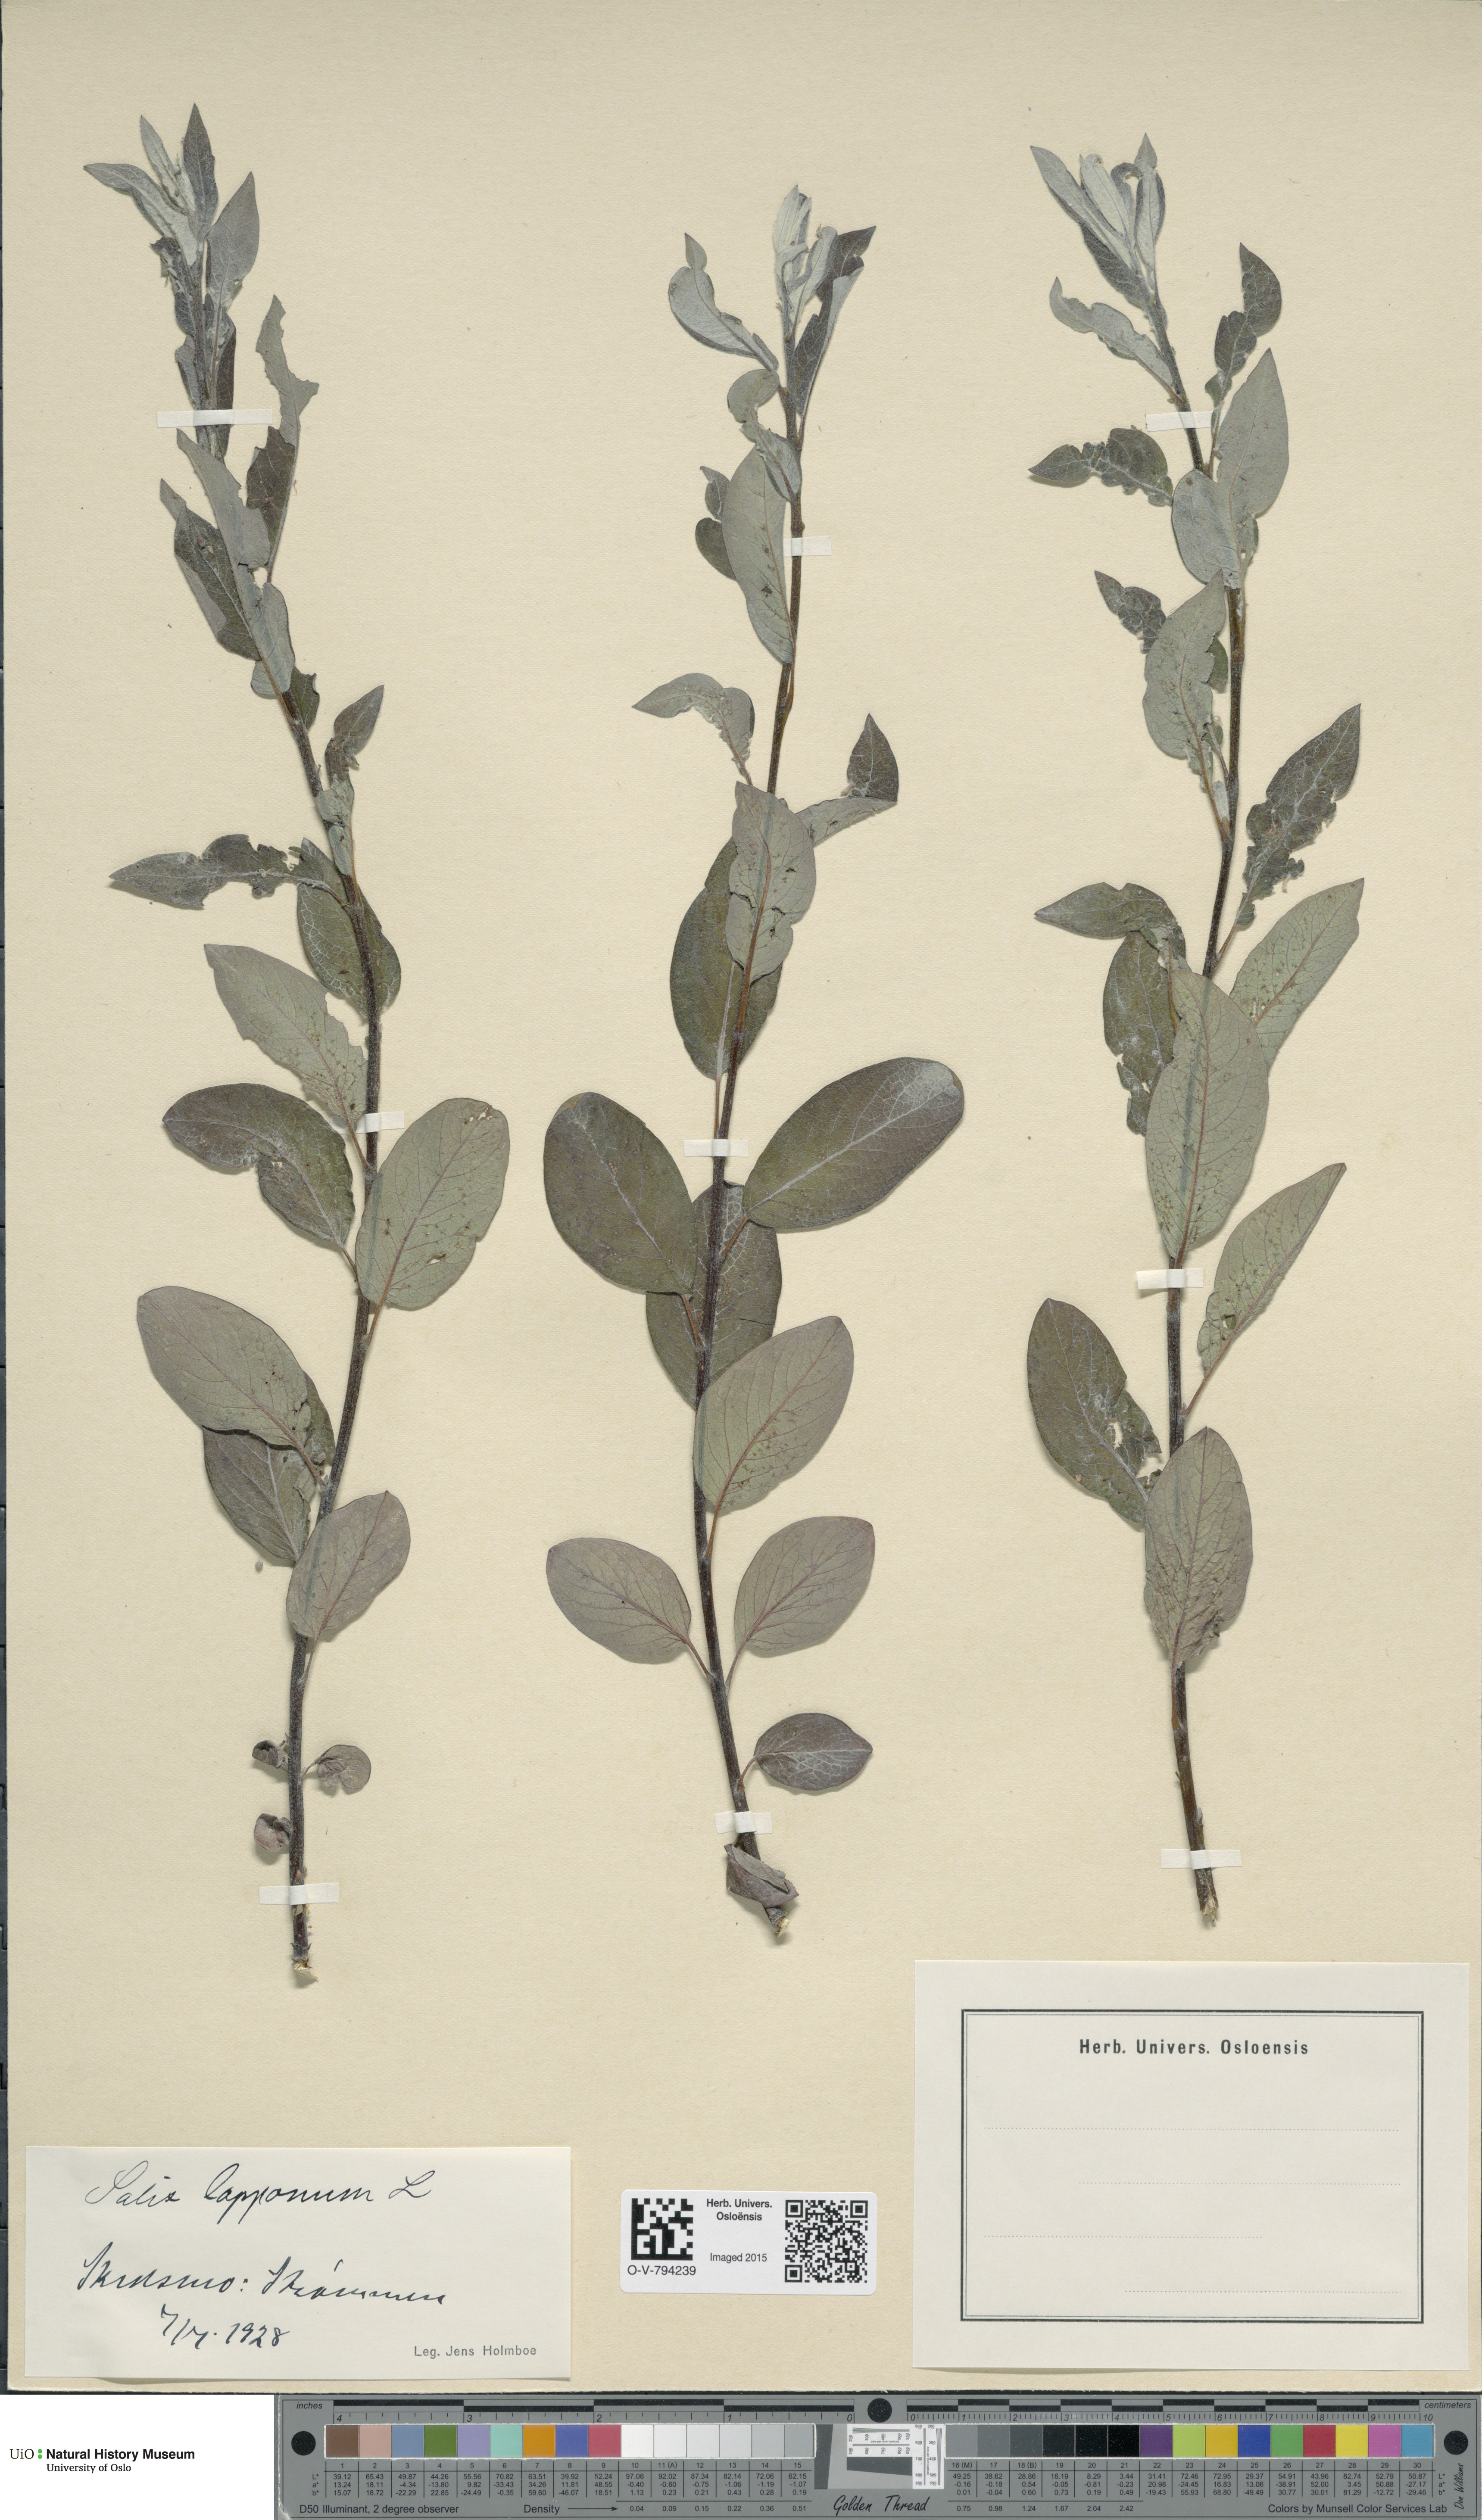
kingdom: Plantae
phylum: Tracheophyta
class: Magnoliopsida
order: Malpighiales
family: Salicaceae
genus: Salix
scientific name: Salix lapponum
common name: Downy willow
